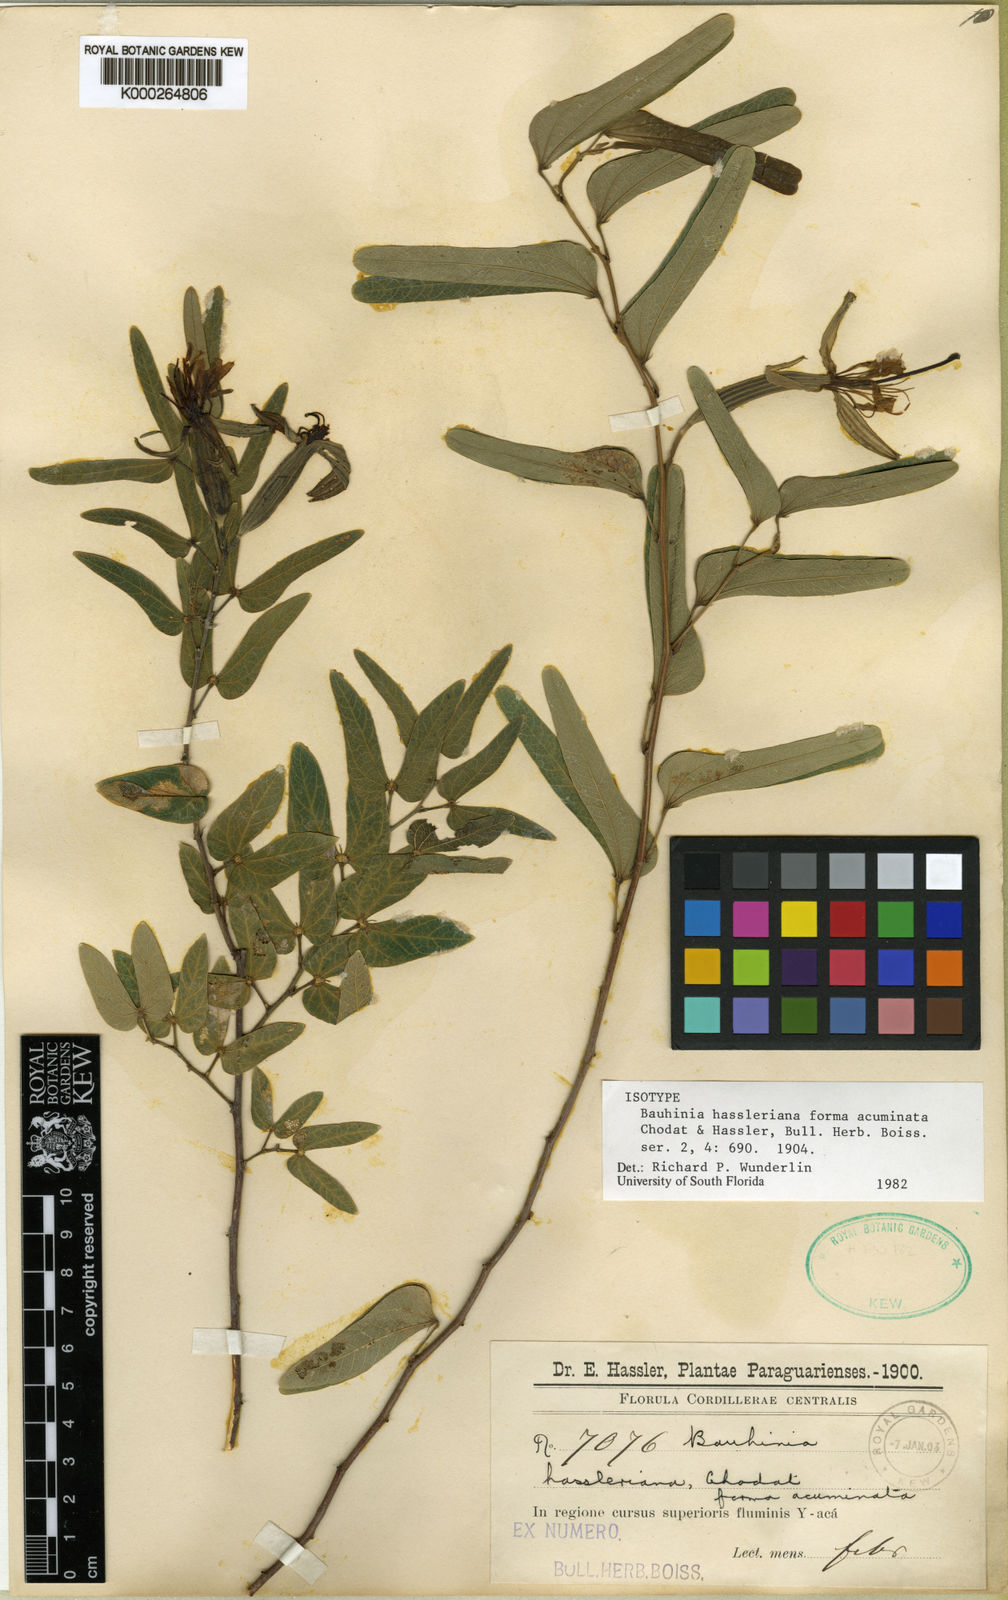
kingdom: Plantae
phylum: Tracheophyta
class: Magnoliopsida
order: Fabales
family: Fabaceae
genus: Bauhinia
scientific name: Bauhinia hagenbeckii
